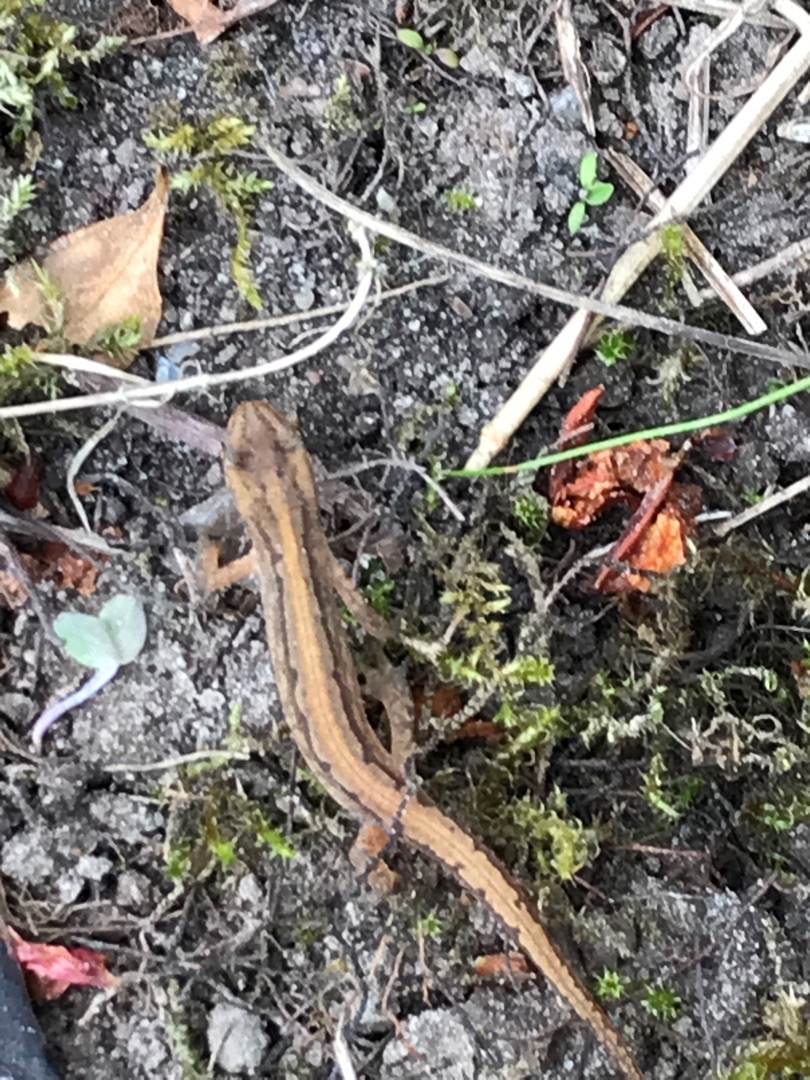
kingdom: Animalia
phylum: Chordata
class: Amphibia
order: Caudata
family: Salamandridae
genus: Lissotriton
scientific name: Lissotriton vulgaris
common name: Lille vandsalamander
